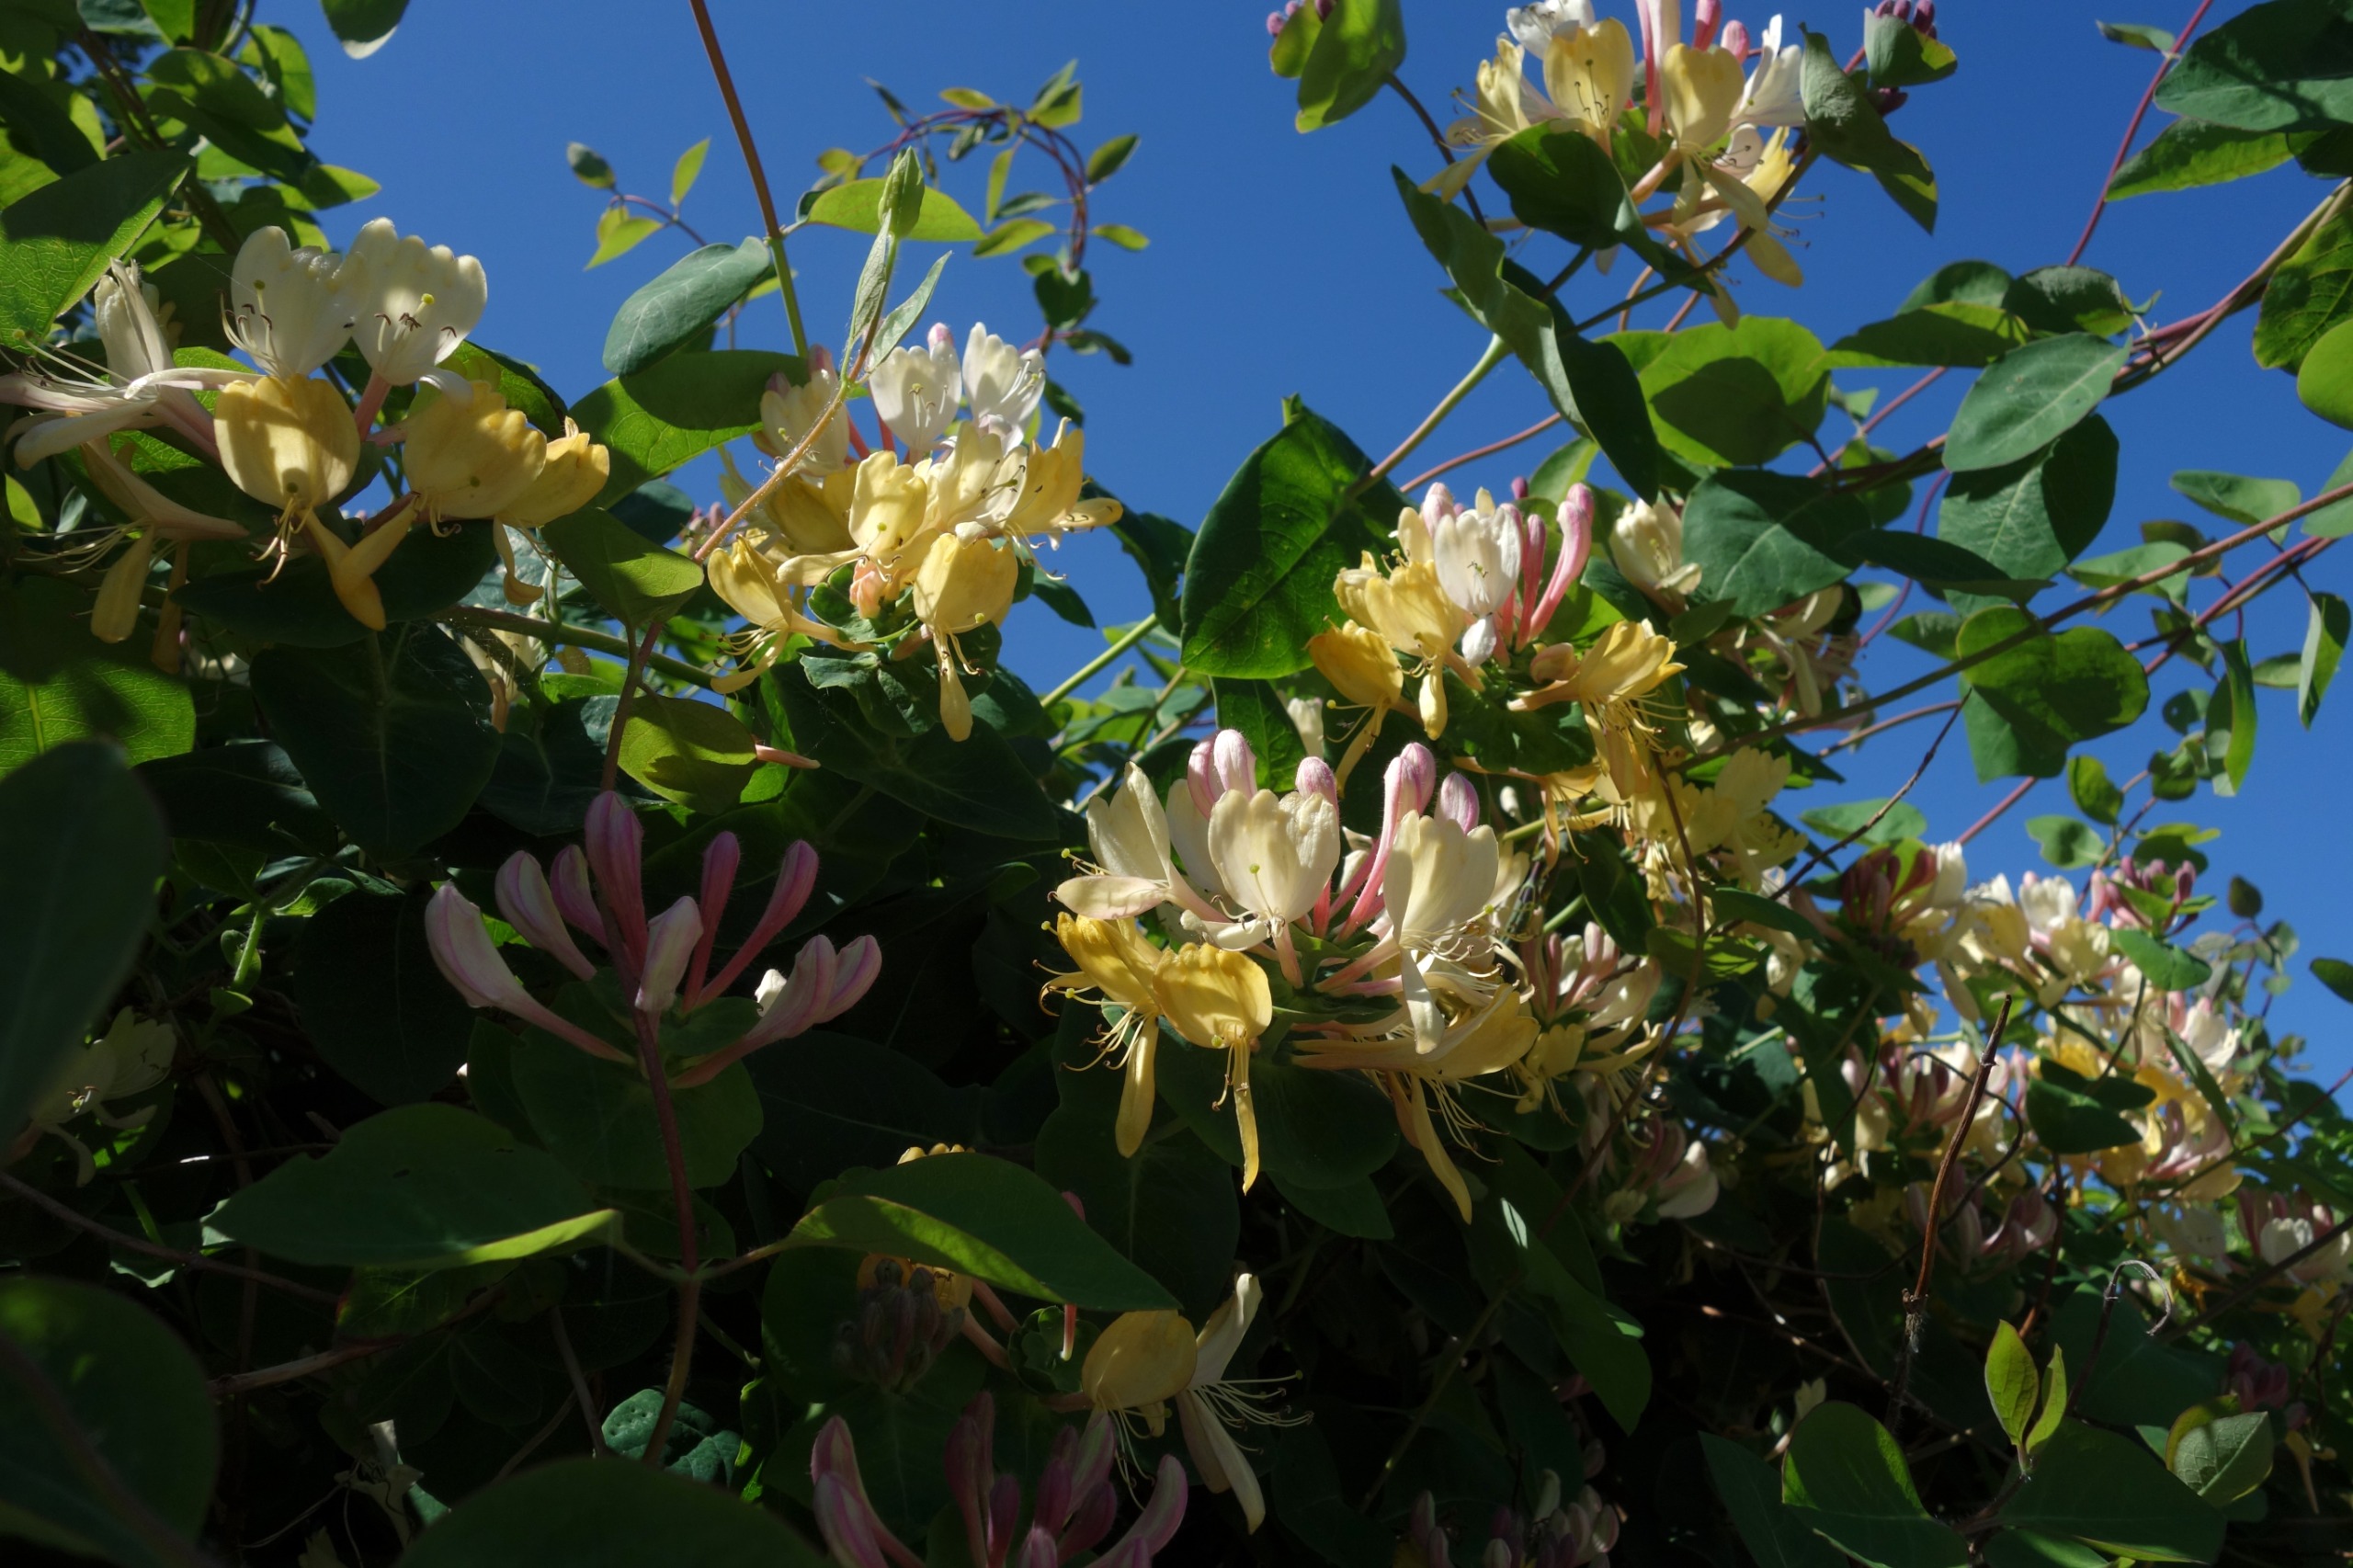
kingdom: Plantae
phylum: Tracheophyta
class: Magnoliopsida
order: Dipsacales
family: Caprifoliaceae
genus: Lonicera
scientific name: Lonicera periclymenum
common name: Almindelig gedeblad
